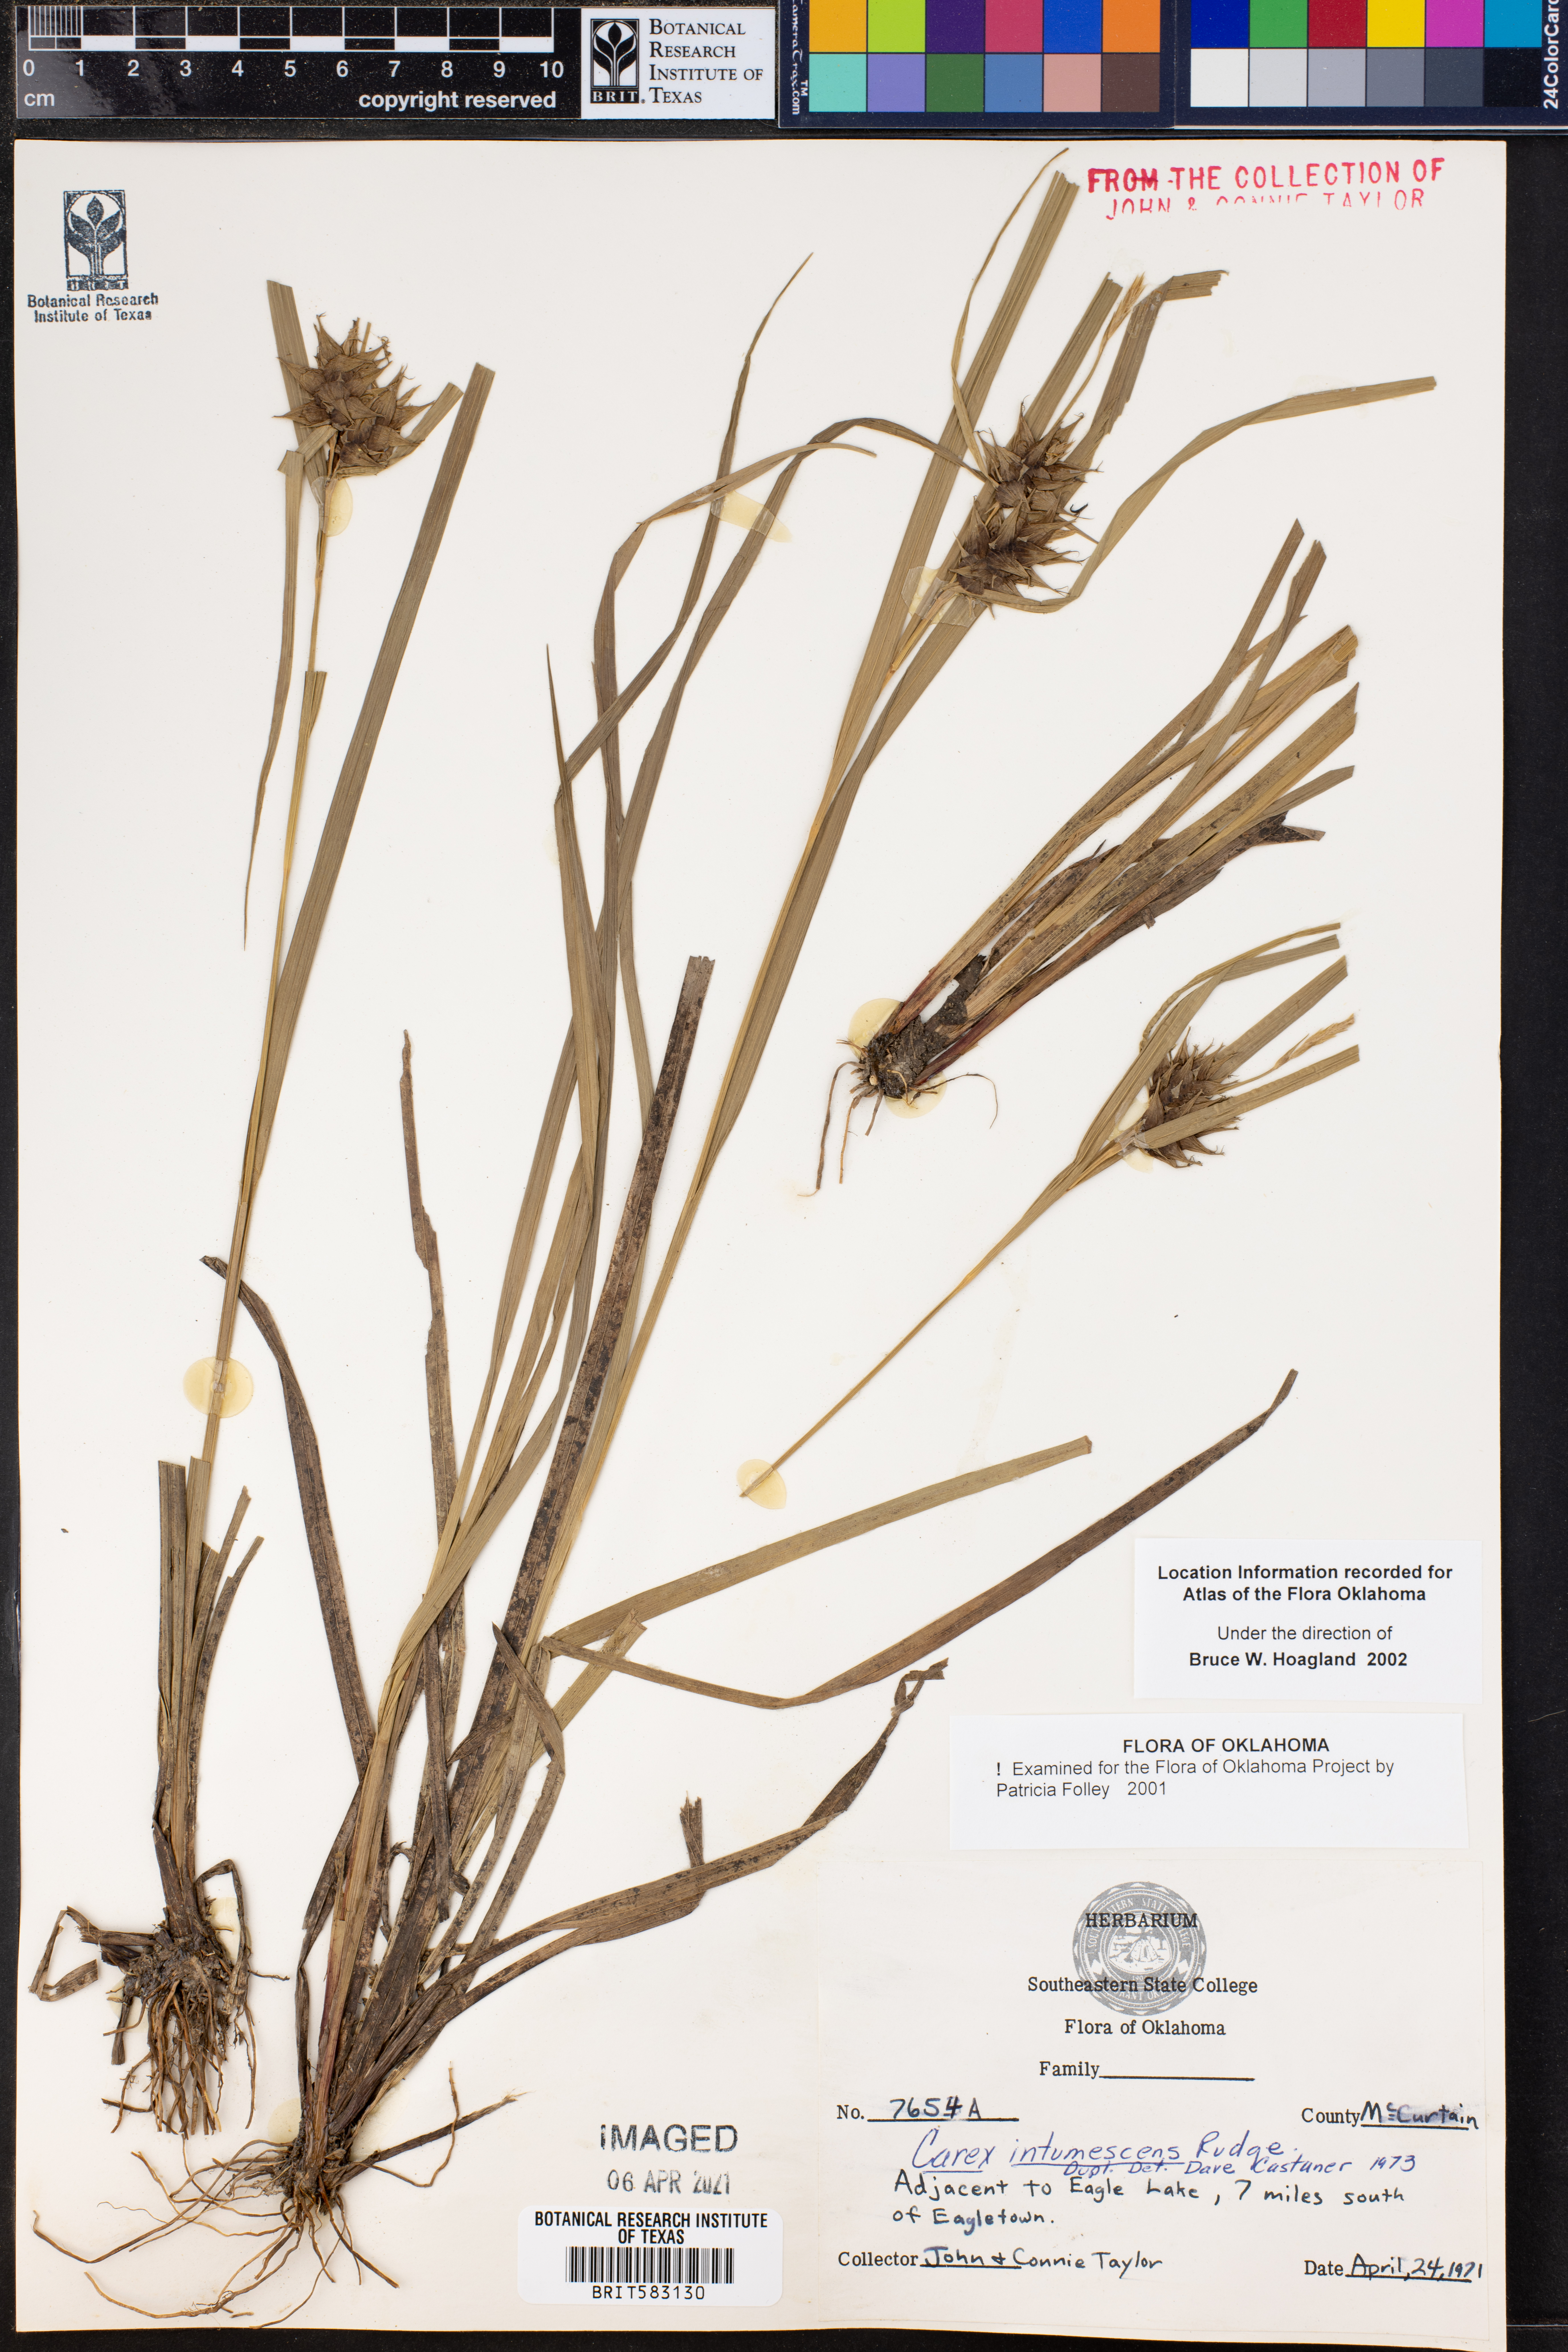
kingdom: Plantae
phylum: Tracheophyta
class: Liliopsida
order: Poales
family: Cyperaceae
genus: Carex
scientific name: Carex intumescens
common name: Greater bladder sedge
